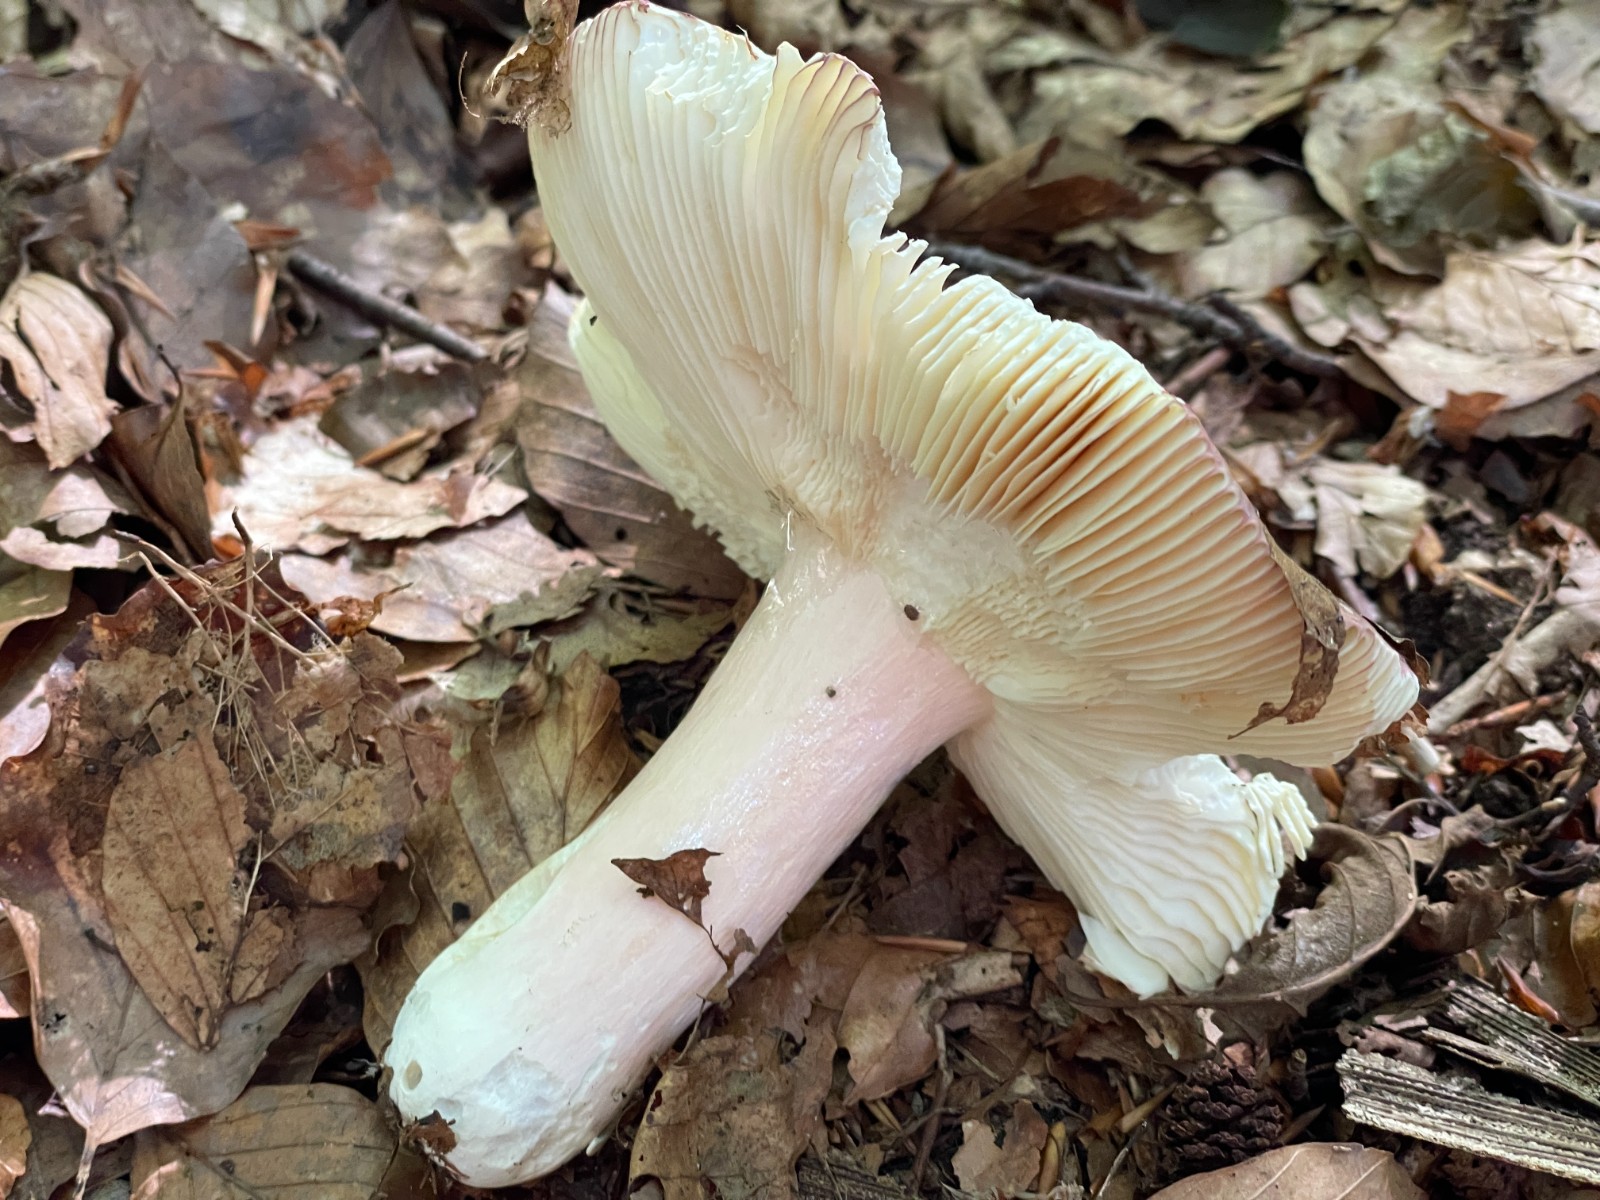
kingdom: Fungi
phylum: Basidiomycota
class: Agaricomycetes
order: Russulales
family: Russulaceae
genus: Russula
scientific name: Russula olivacea
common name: stor skørhat
